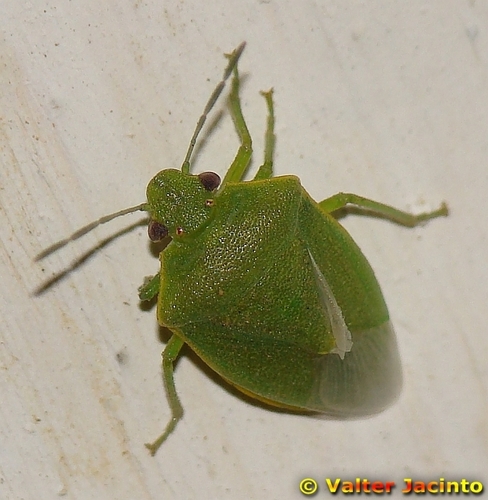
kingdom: Animalia
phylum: Arthropoda
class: Insecta
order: Hemiptera
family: Pentatomidae
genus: Acrosternum
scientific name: Acrosternum millierei
